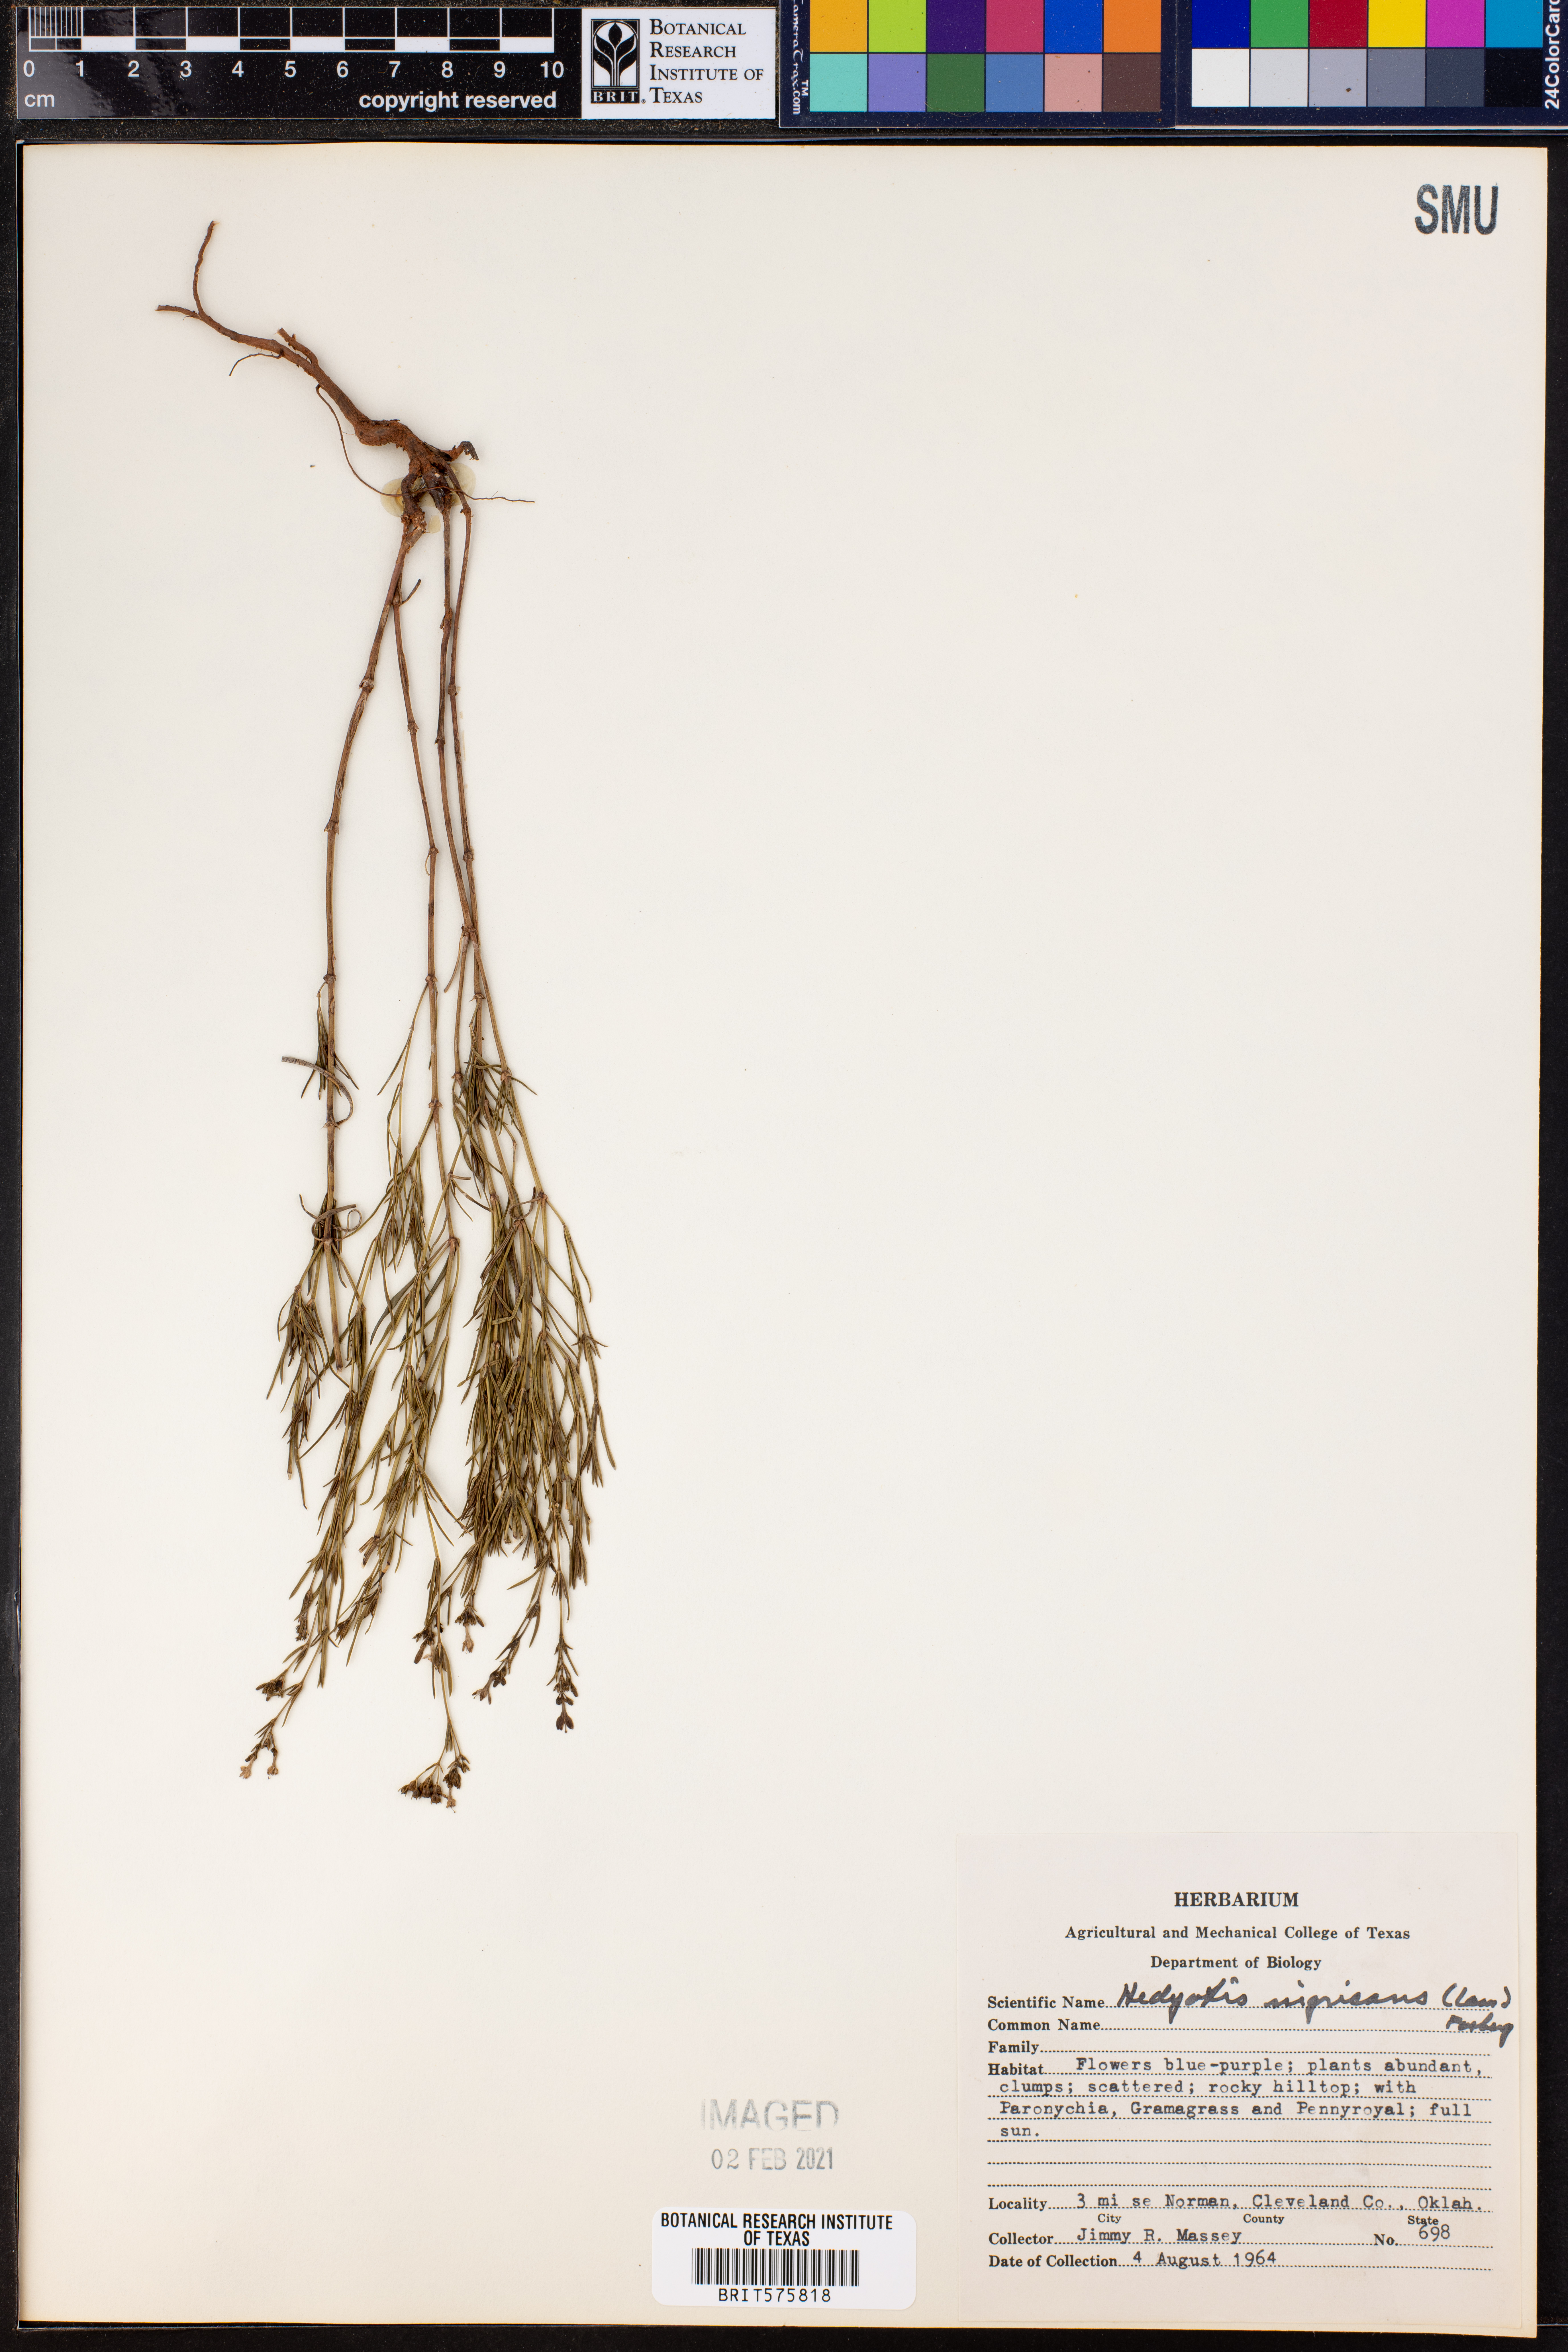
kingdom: Plantae
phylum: Tracheophyta
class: Magnoliopsida
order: Gentianales
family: Rubiaceae
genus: Stenaria
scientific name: Stenaria nigricans
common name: Diamondflowers
